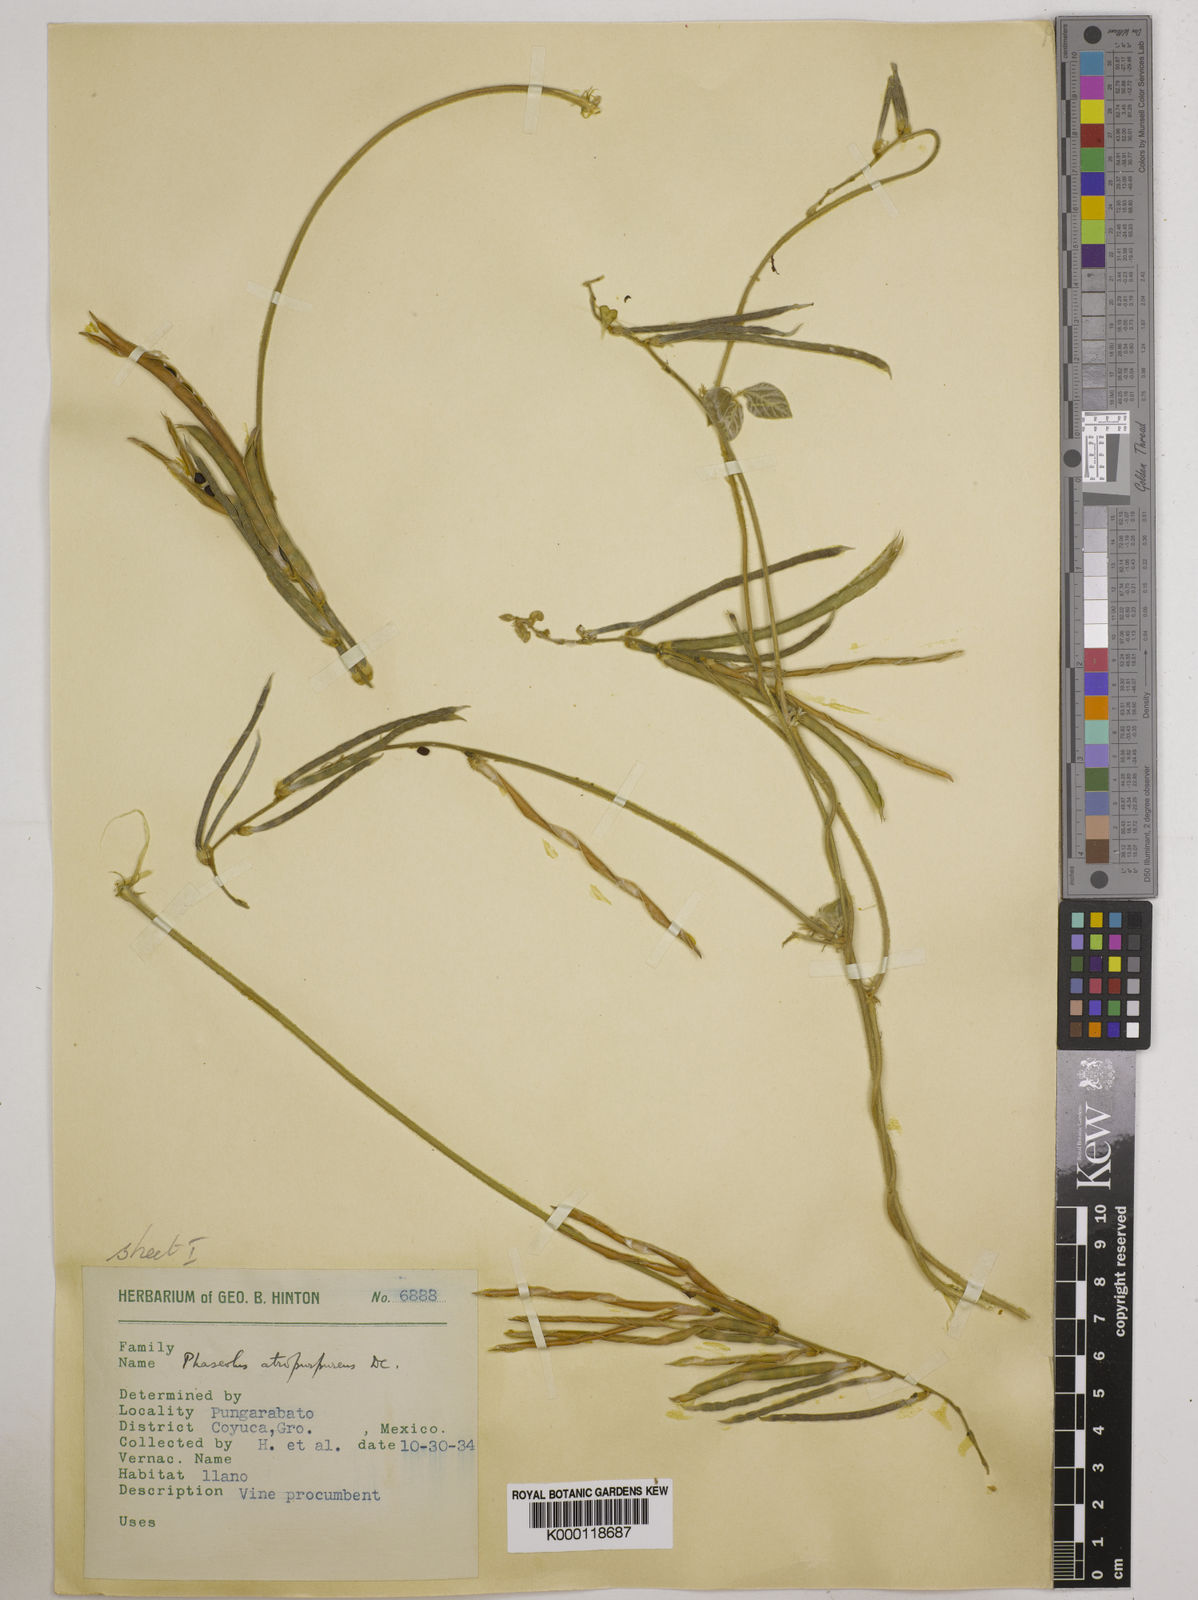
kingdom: Plantae
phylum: Tracheophyta
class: Magnoliopsida
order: Fabales
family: Fabaceae
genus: Macroptilium
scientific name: Macroptilium atropurpureum
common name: Purple bushbean
